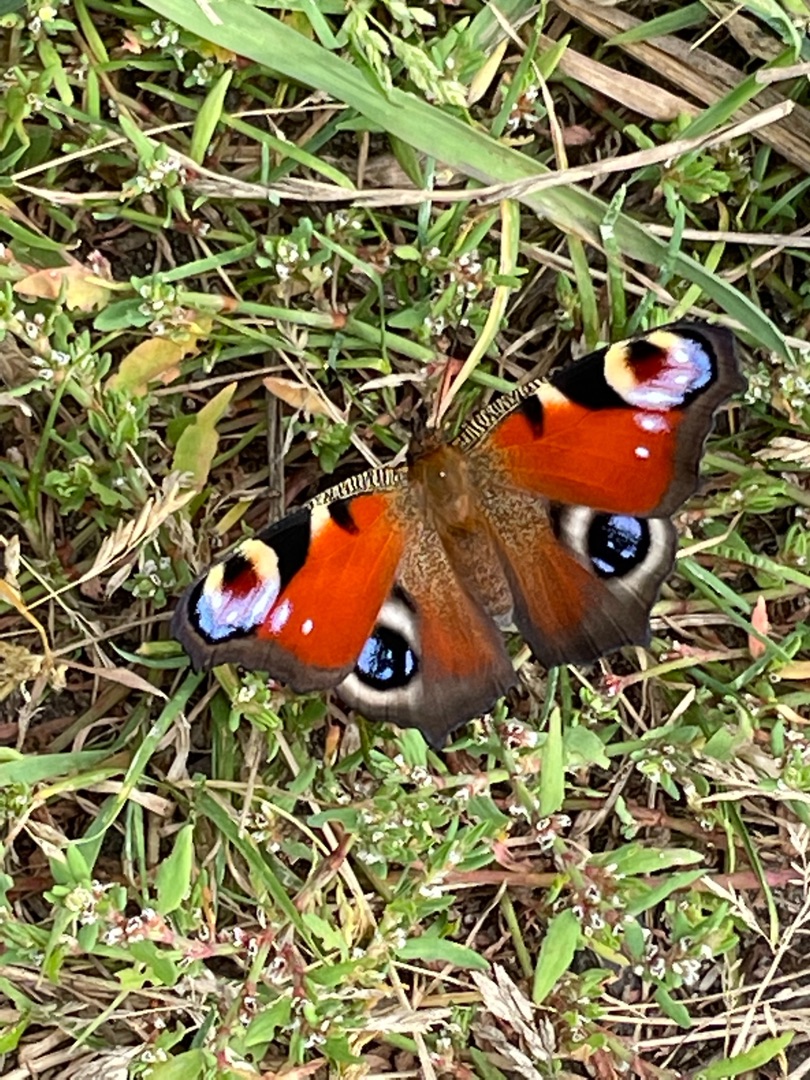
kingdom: Animalia
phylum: Arthropoda
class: Insecta
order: Lepidoptera
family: Nymphalidae
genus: Aglais
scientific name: Aglais io
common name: Dagpåfugleøje
